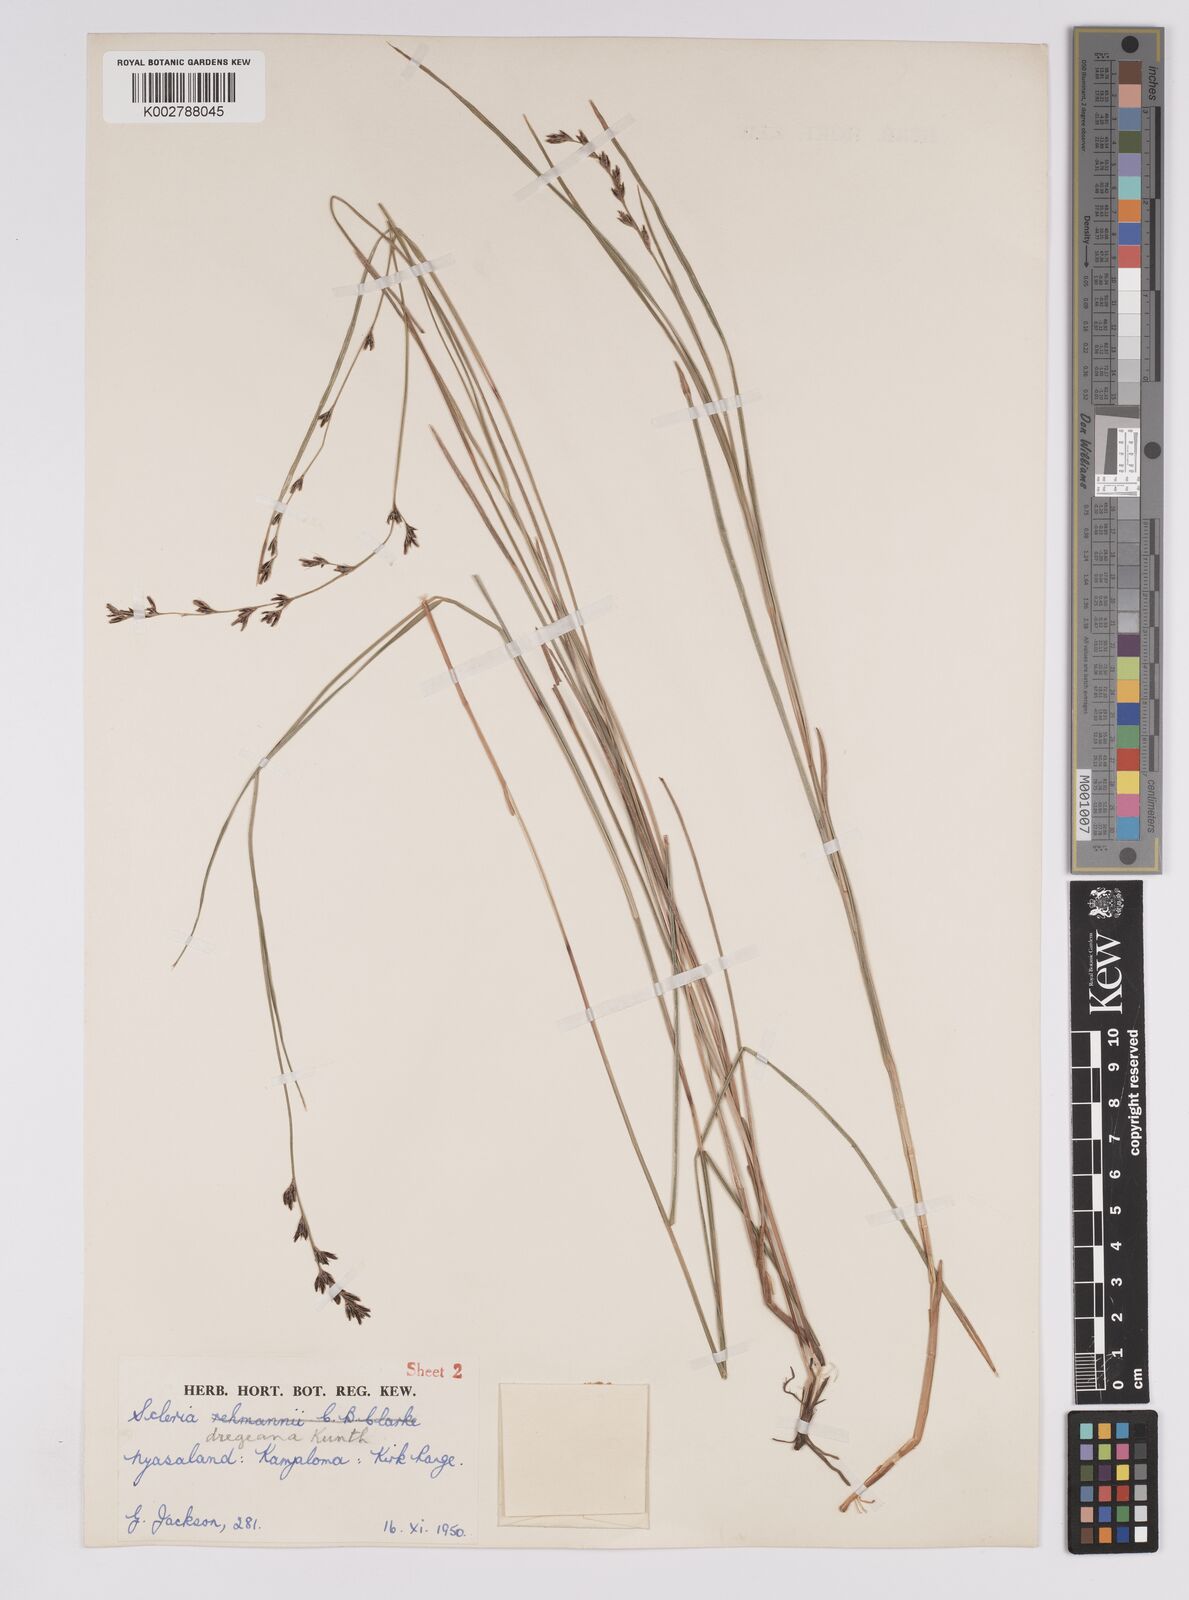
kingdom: Plantae
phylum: Tracheophyta
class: Liliopsida
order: Poales
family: Cyperaceae
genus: Scleria
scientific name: Scleria dregeana
